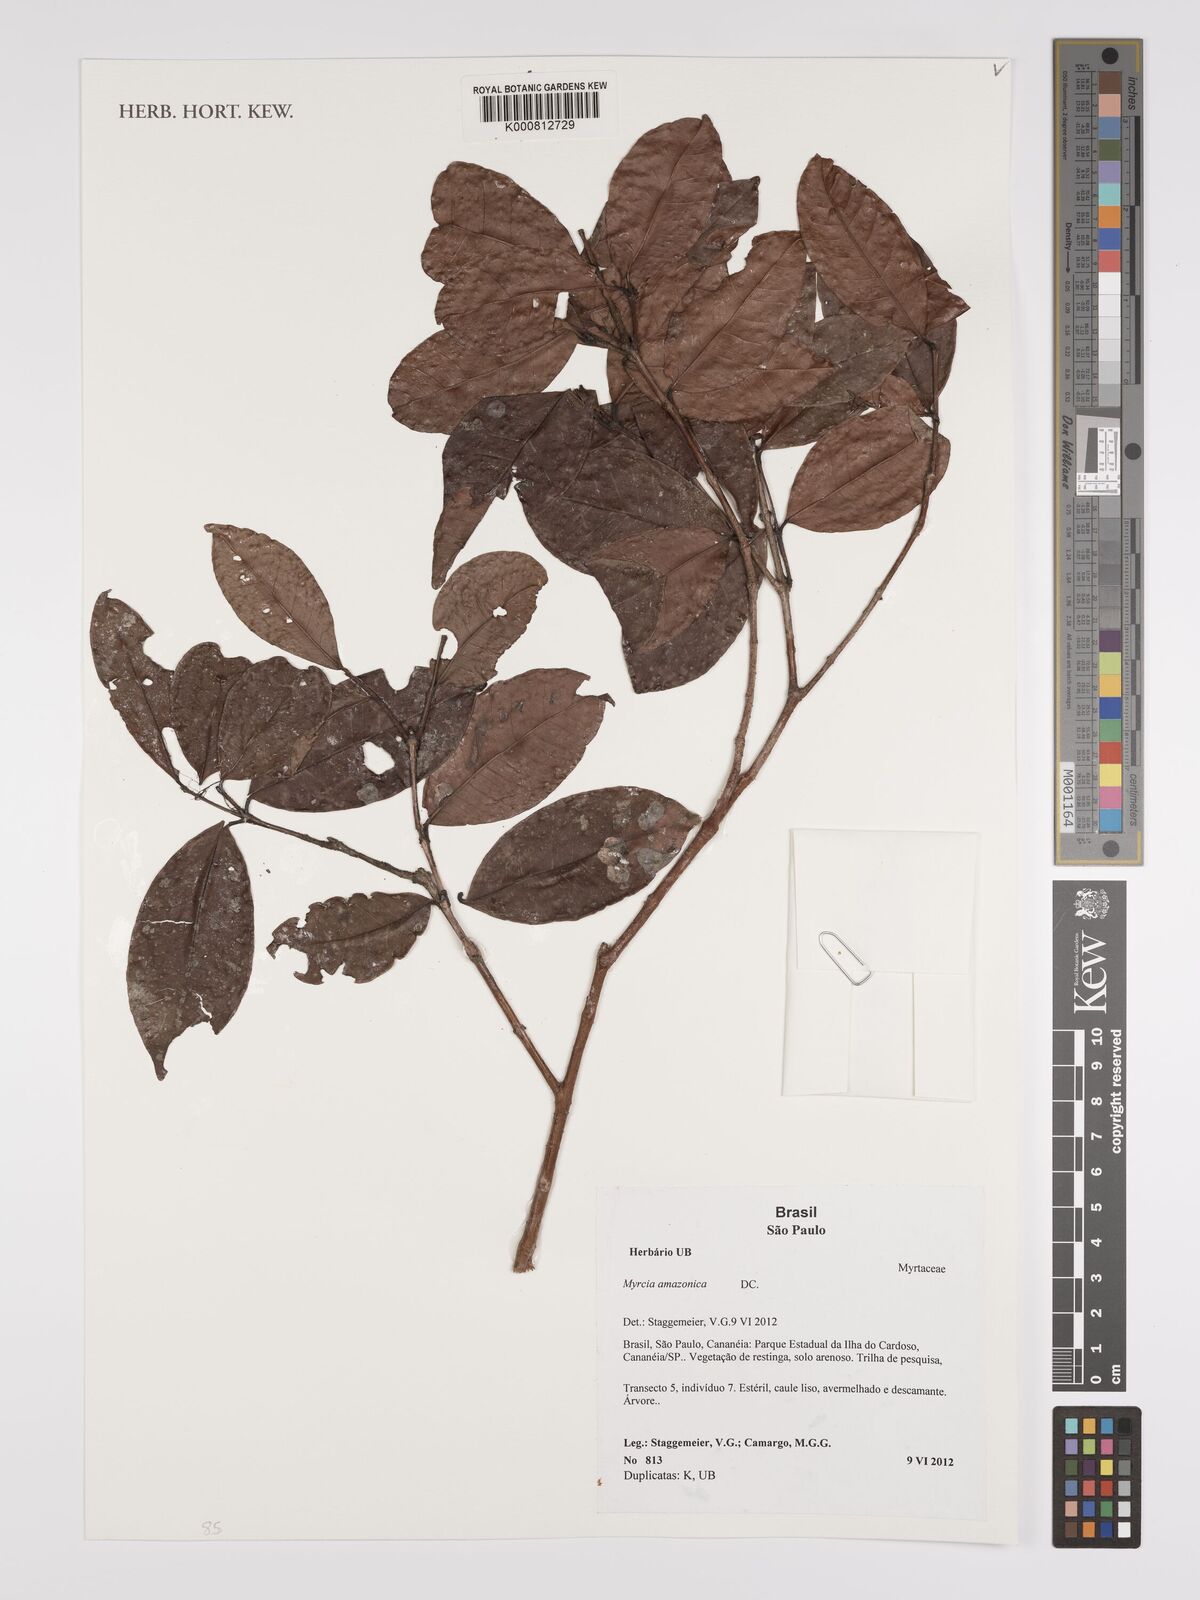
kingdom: Plantae
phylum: Tracheophyta
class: Magnoliopsida
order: Myrtales
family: Myrtaceae
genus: Myrcia
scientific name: Myrcia amazonica
